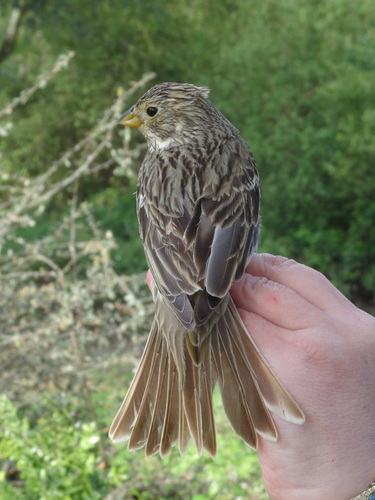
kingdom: Animalia
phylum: Chordata
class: Aves
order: Passeriformes
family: Emberizidae
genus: Emberiza
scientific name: Emberiza calandra
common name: Corn bunting
